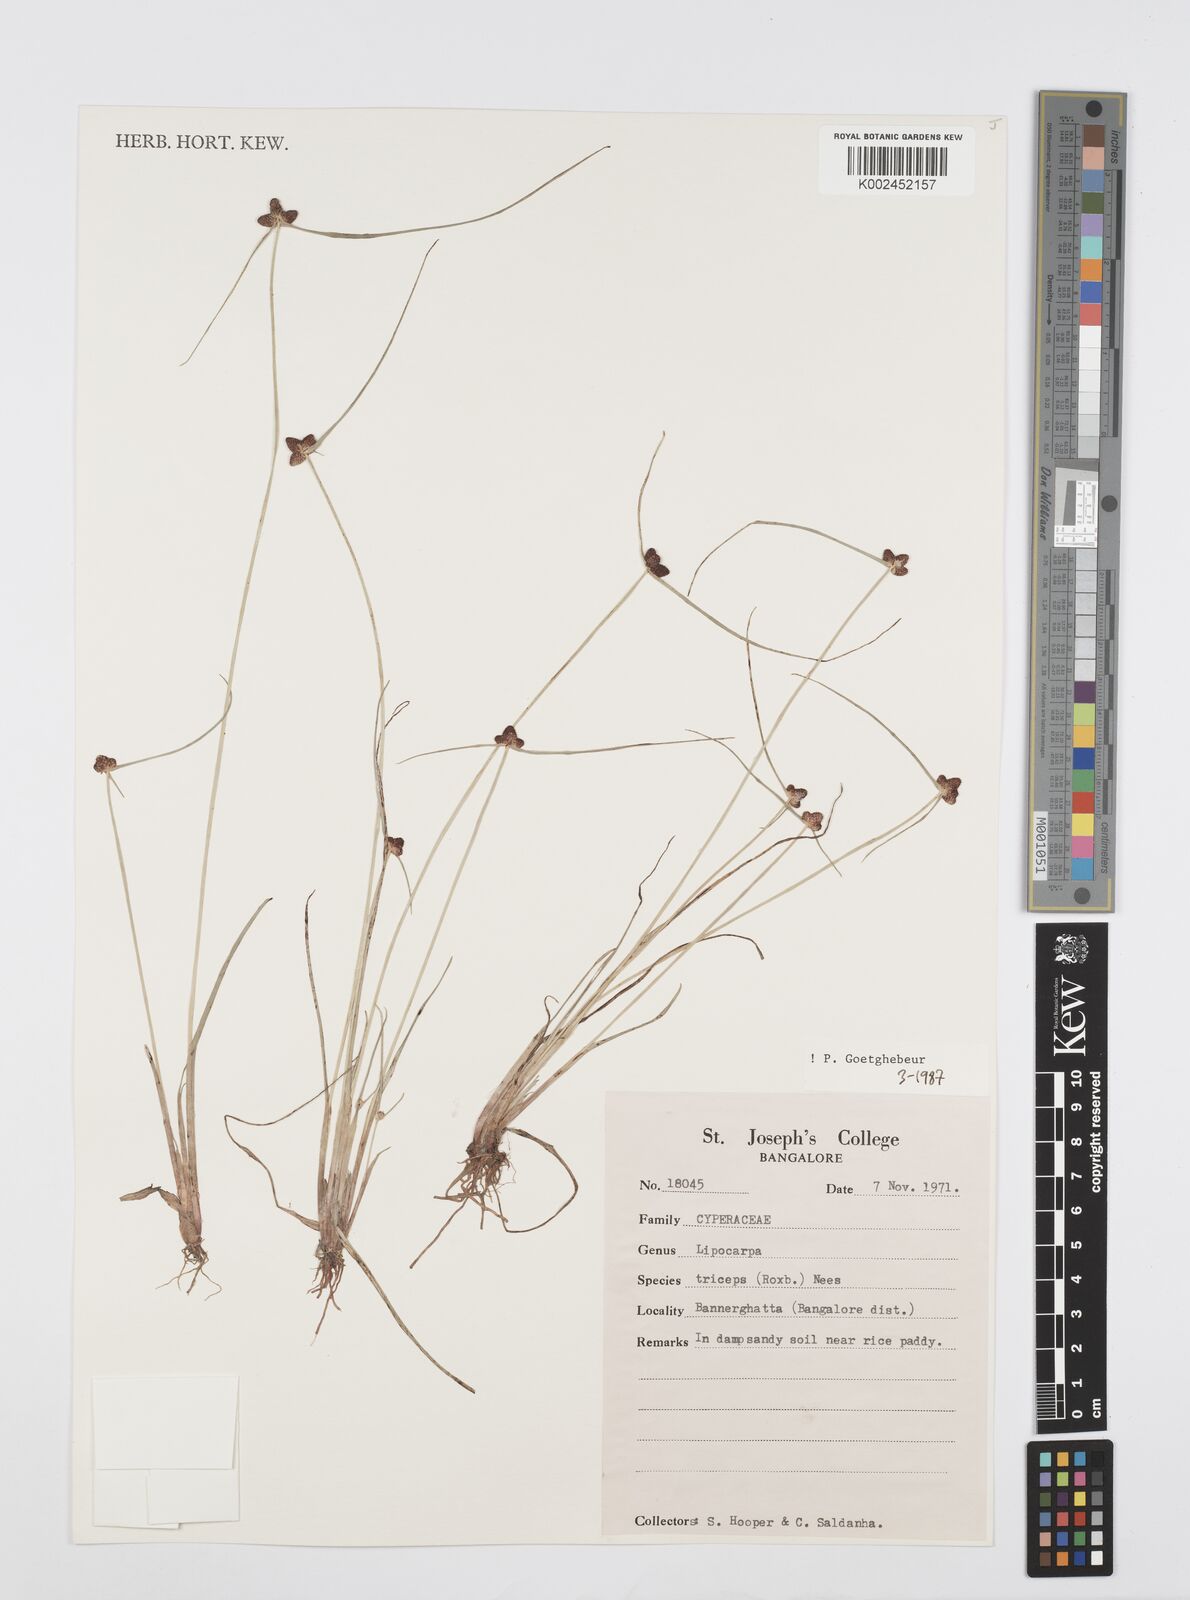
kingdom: Plantae
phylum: Tracheophyta
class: Liliopsida
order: Poales
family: Cyperaceae
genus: Cyperus
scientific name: Cyperus sphacelatus
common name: Roadside flatsedge
